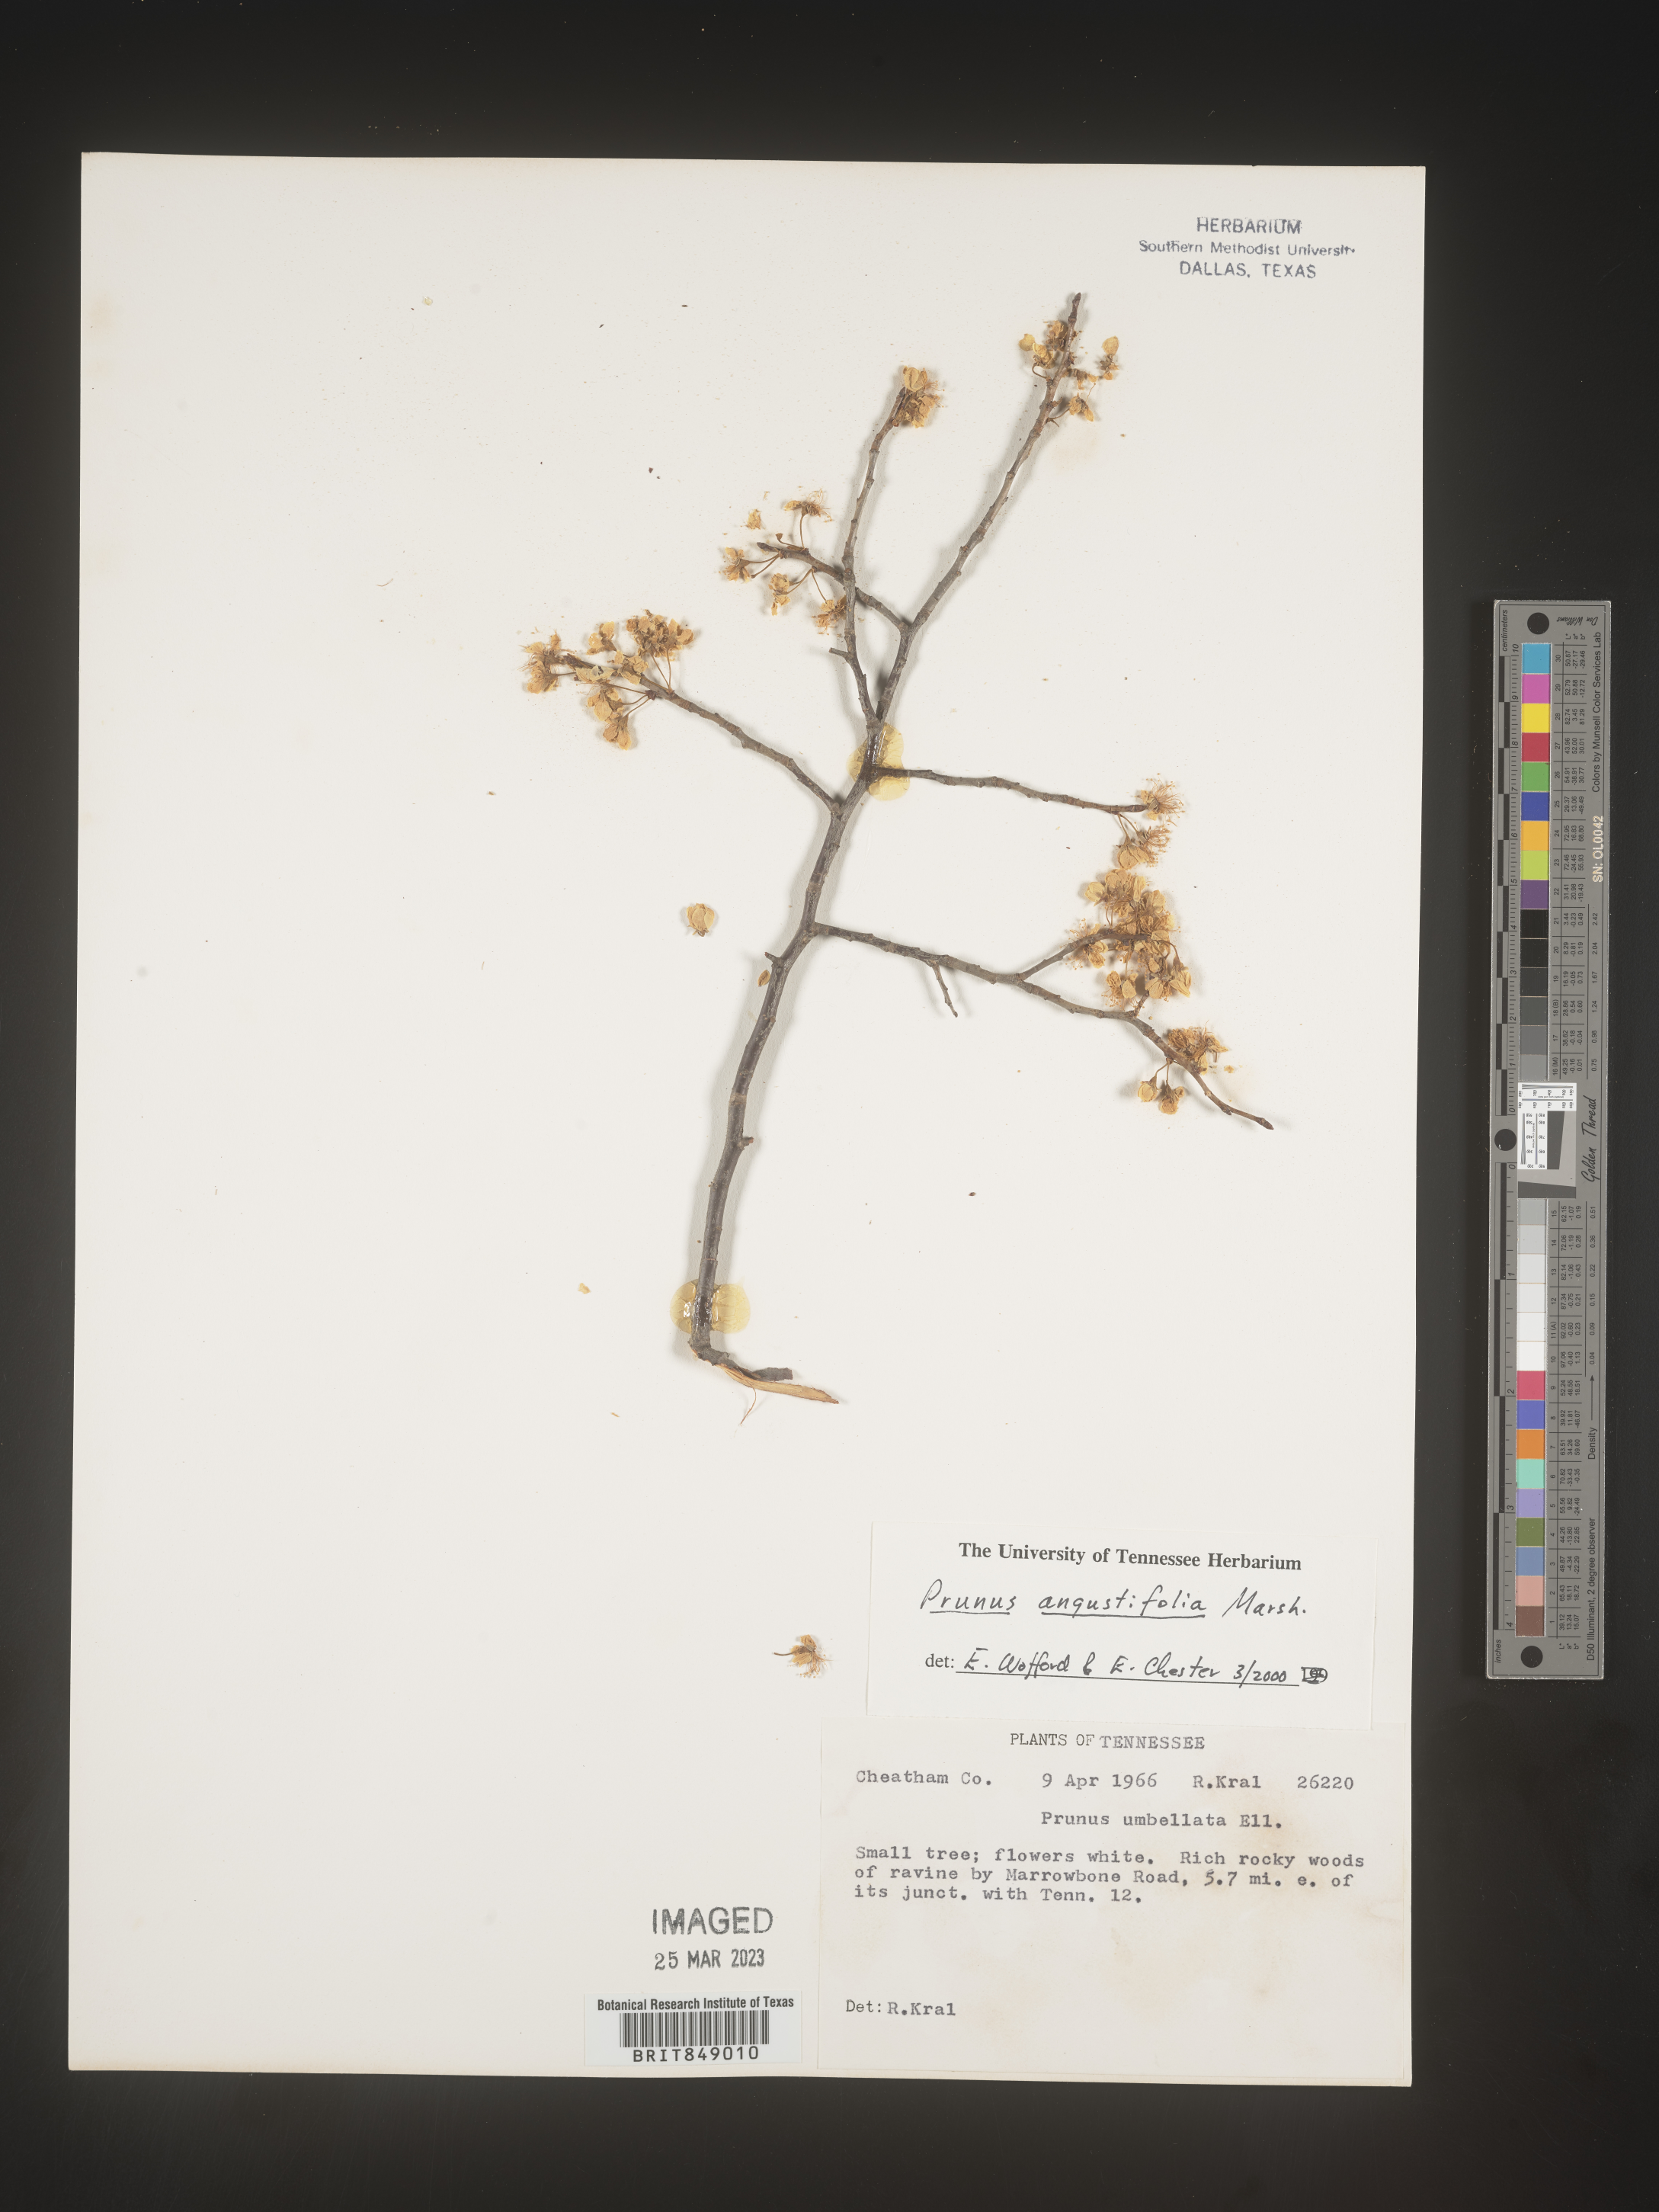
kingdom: Plantae
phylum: Tracheophyta
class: Magnoliopsida
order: Rosales
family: Rosaceae
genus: Prunus
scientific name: Prunus angustifolia
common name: Cherokee plum
